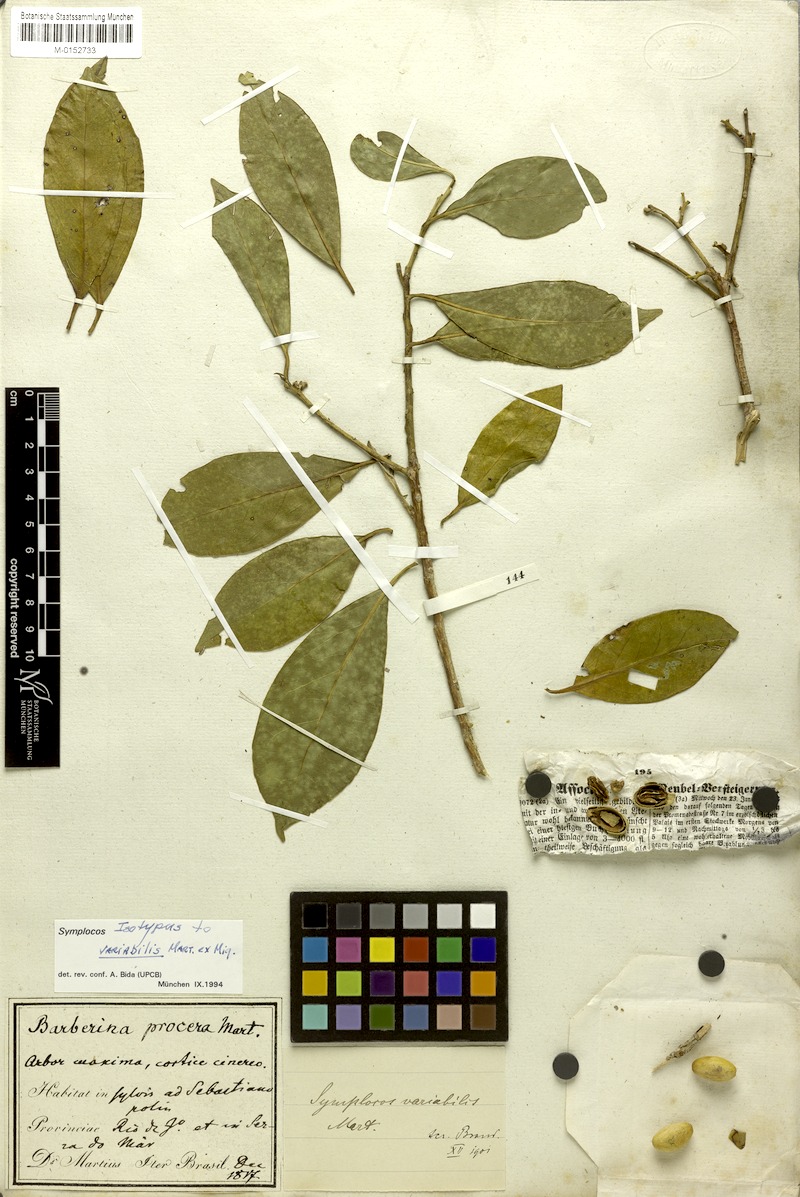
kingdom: Plantae
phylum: Tracheophyta
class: Magnoliopsida
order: Ericales
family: Symplocaceae
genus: Symplocos
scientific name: Symplocos estrellensis
